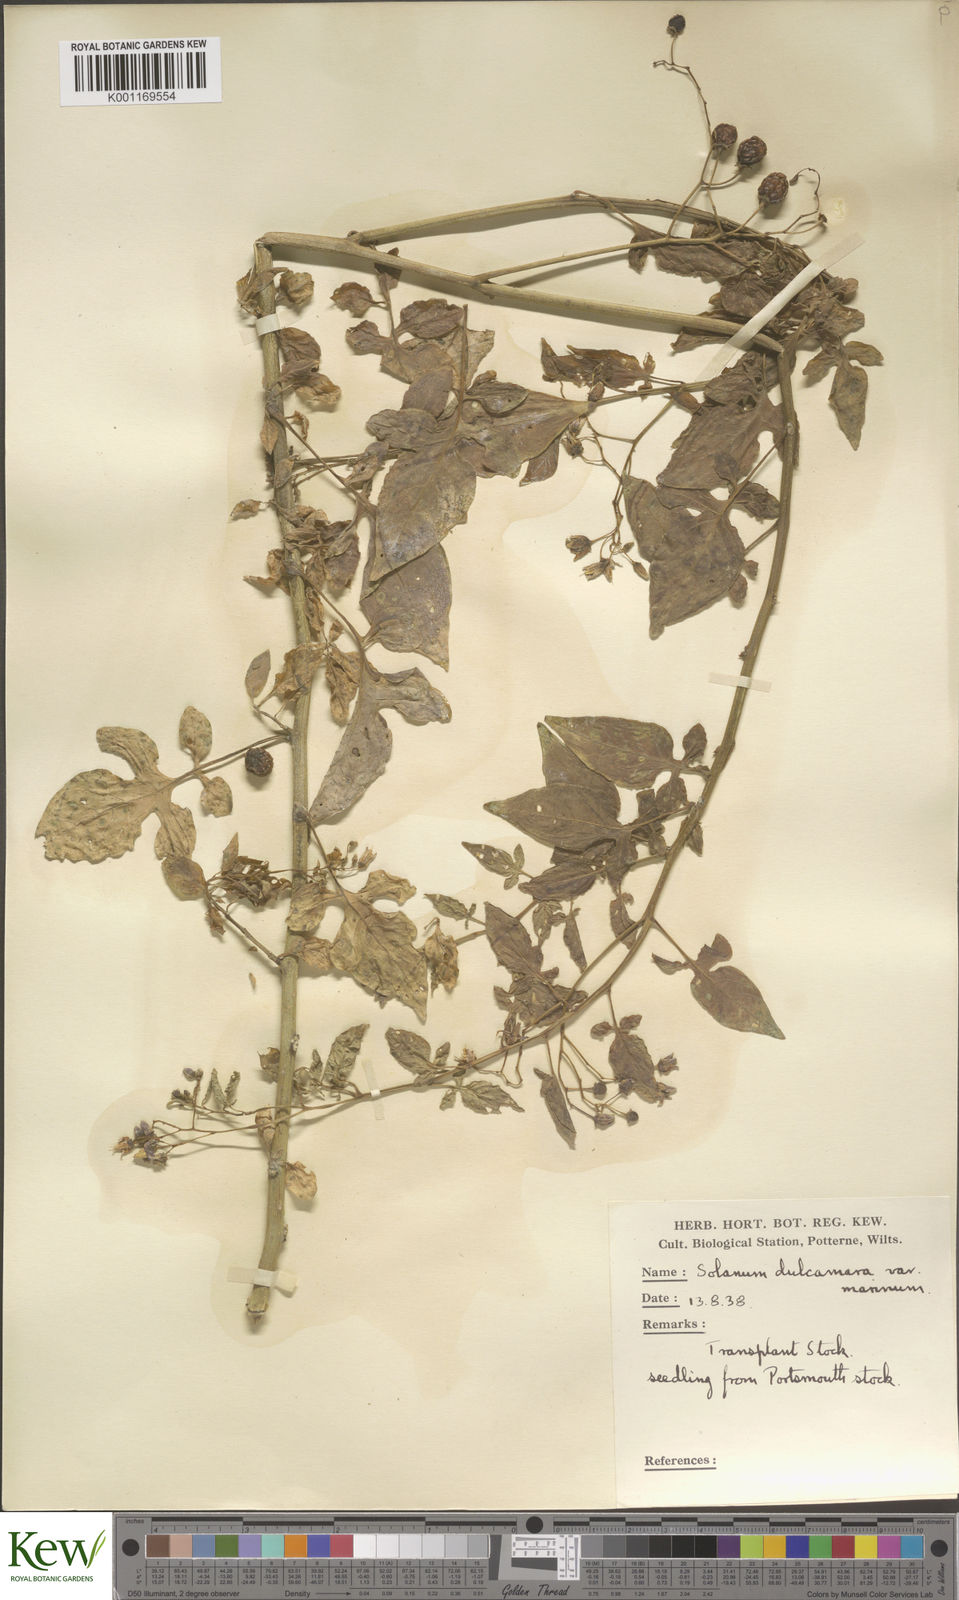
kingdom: Plantae
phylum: Tracheophyta
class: Magnoliopsida
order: Solanales
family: Solanaceae
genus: Solanum
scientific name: Solanum dulcamara
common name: Climbing nightshade
